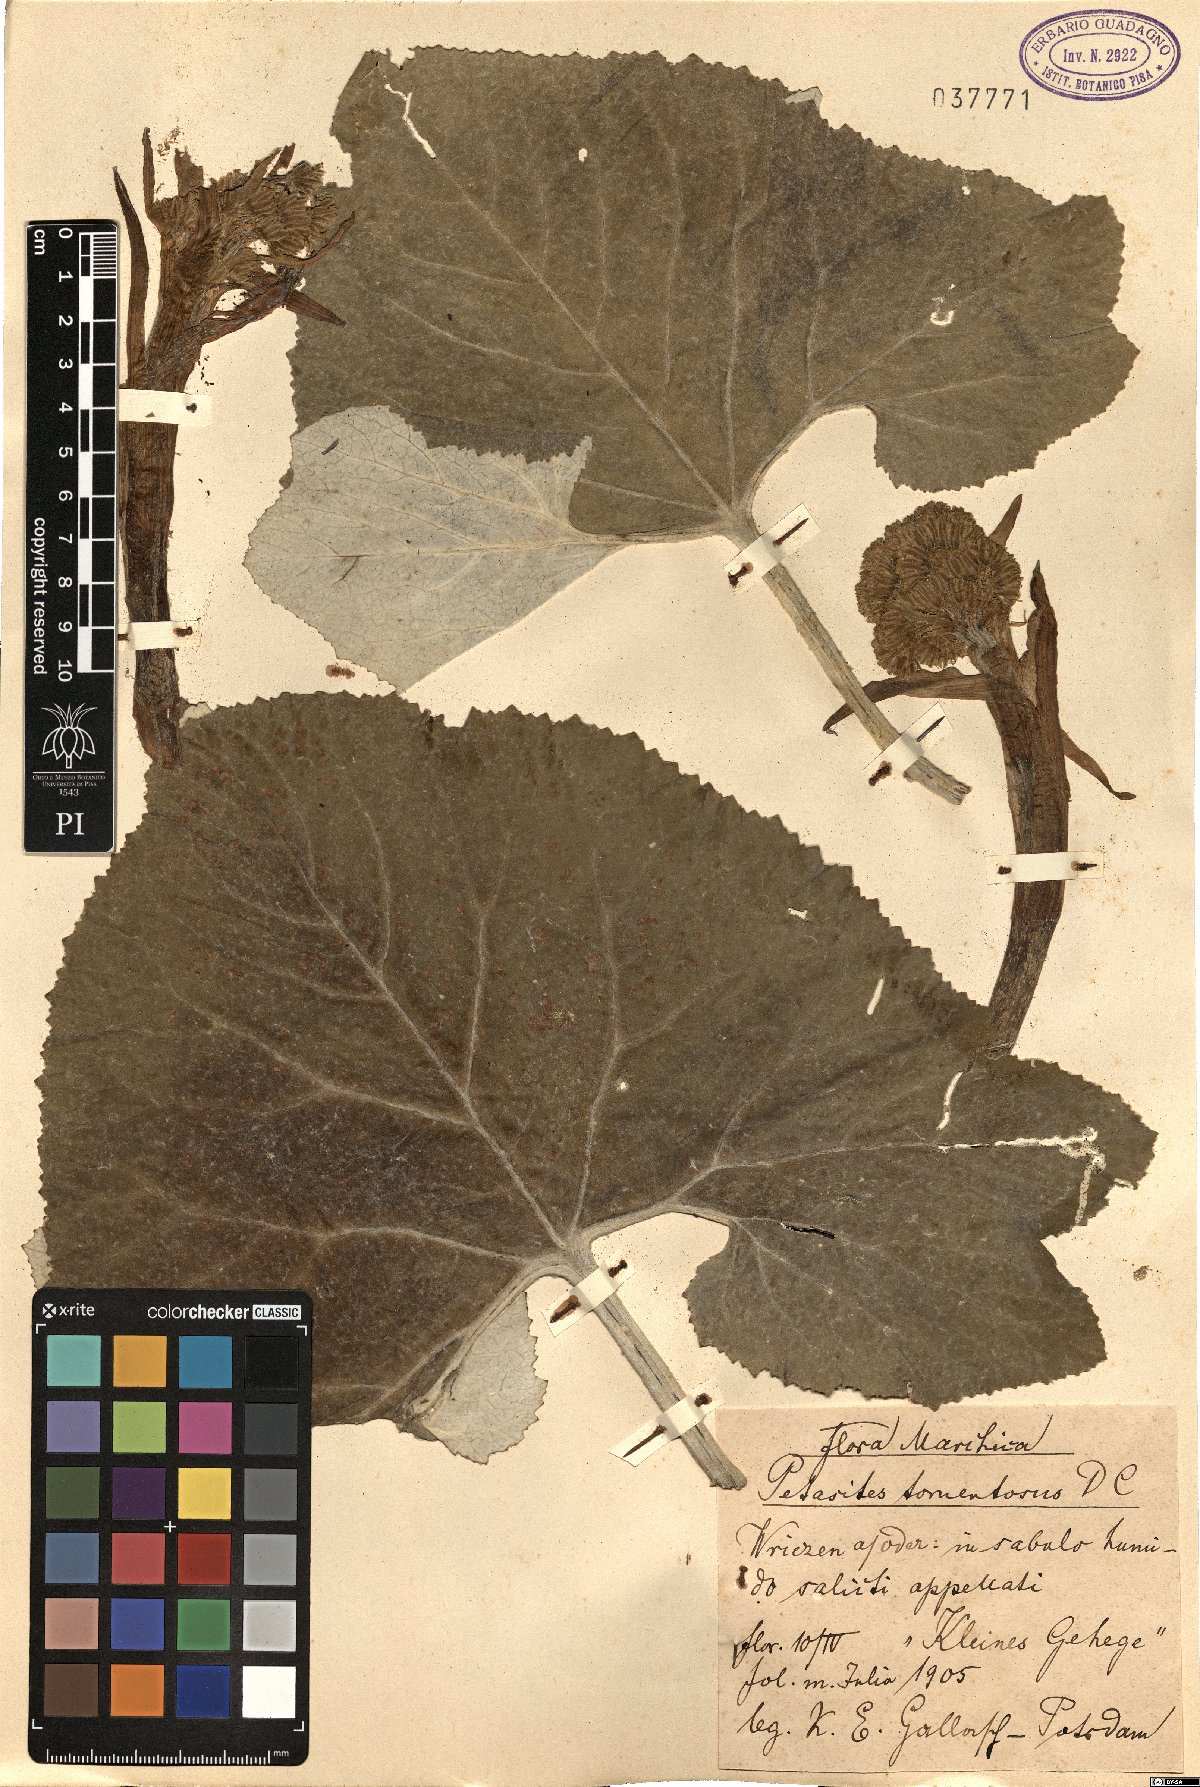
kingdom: Plantae
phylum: Tracheophyta
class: Magnoliopsida
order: Asterales
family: Asteraceae
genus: Petasites
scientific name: Petasites spurius
